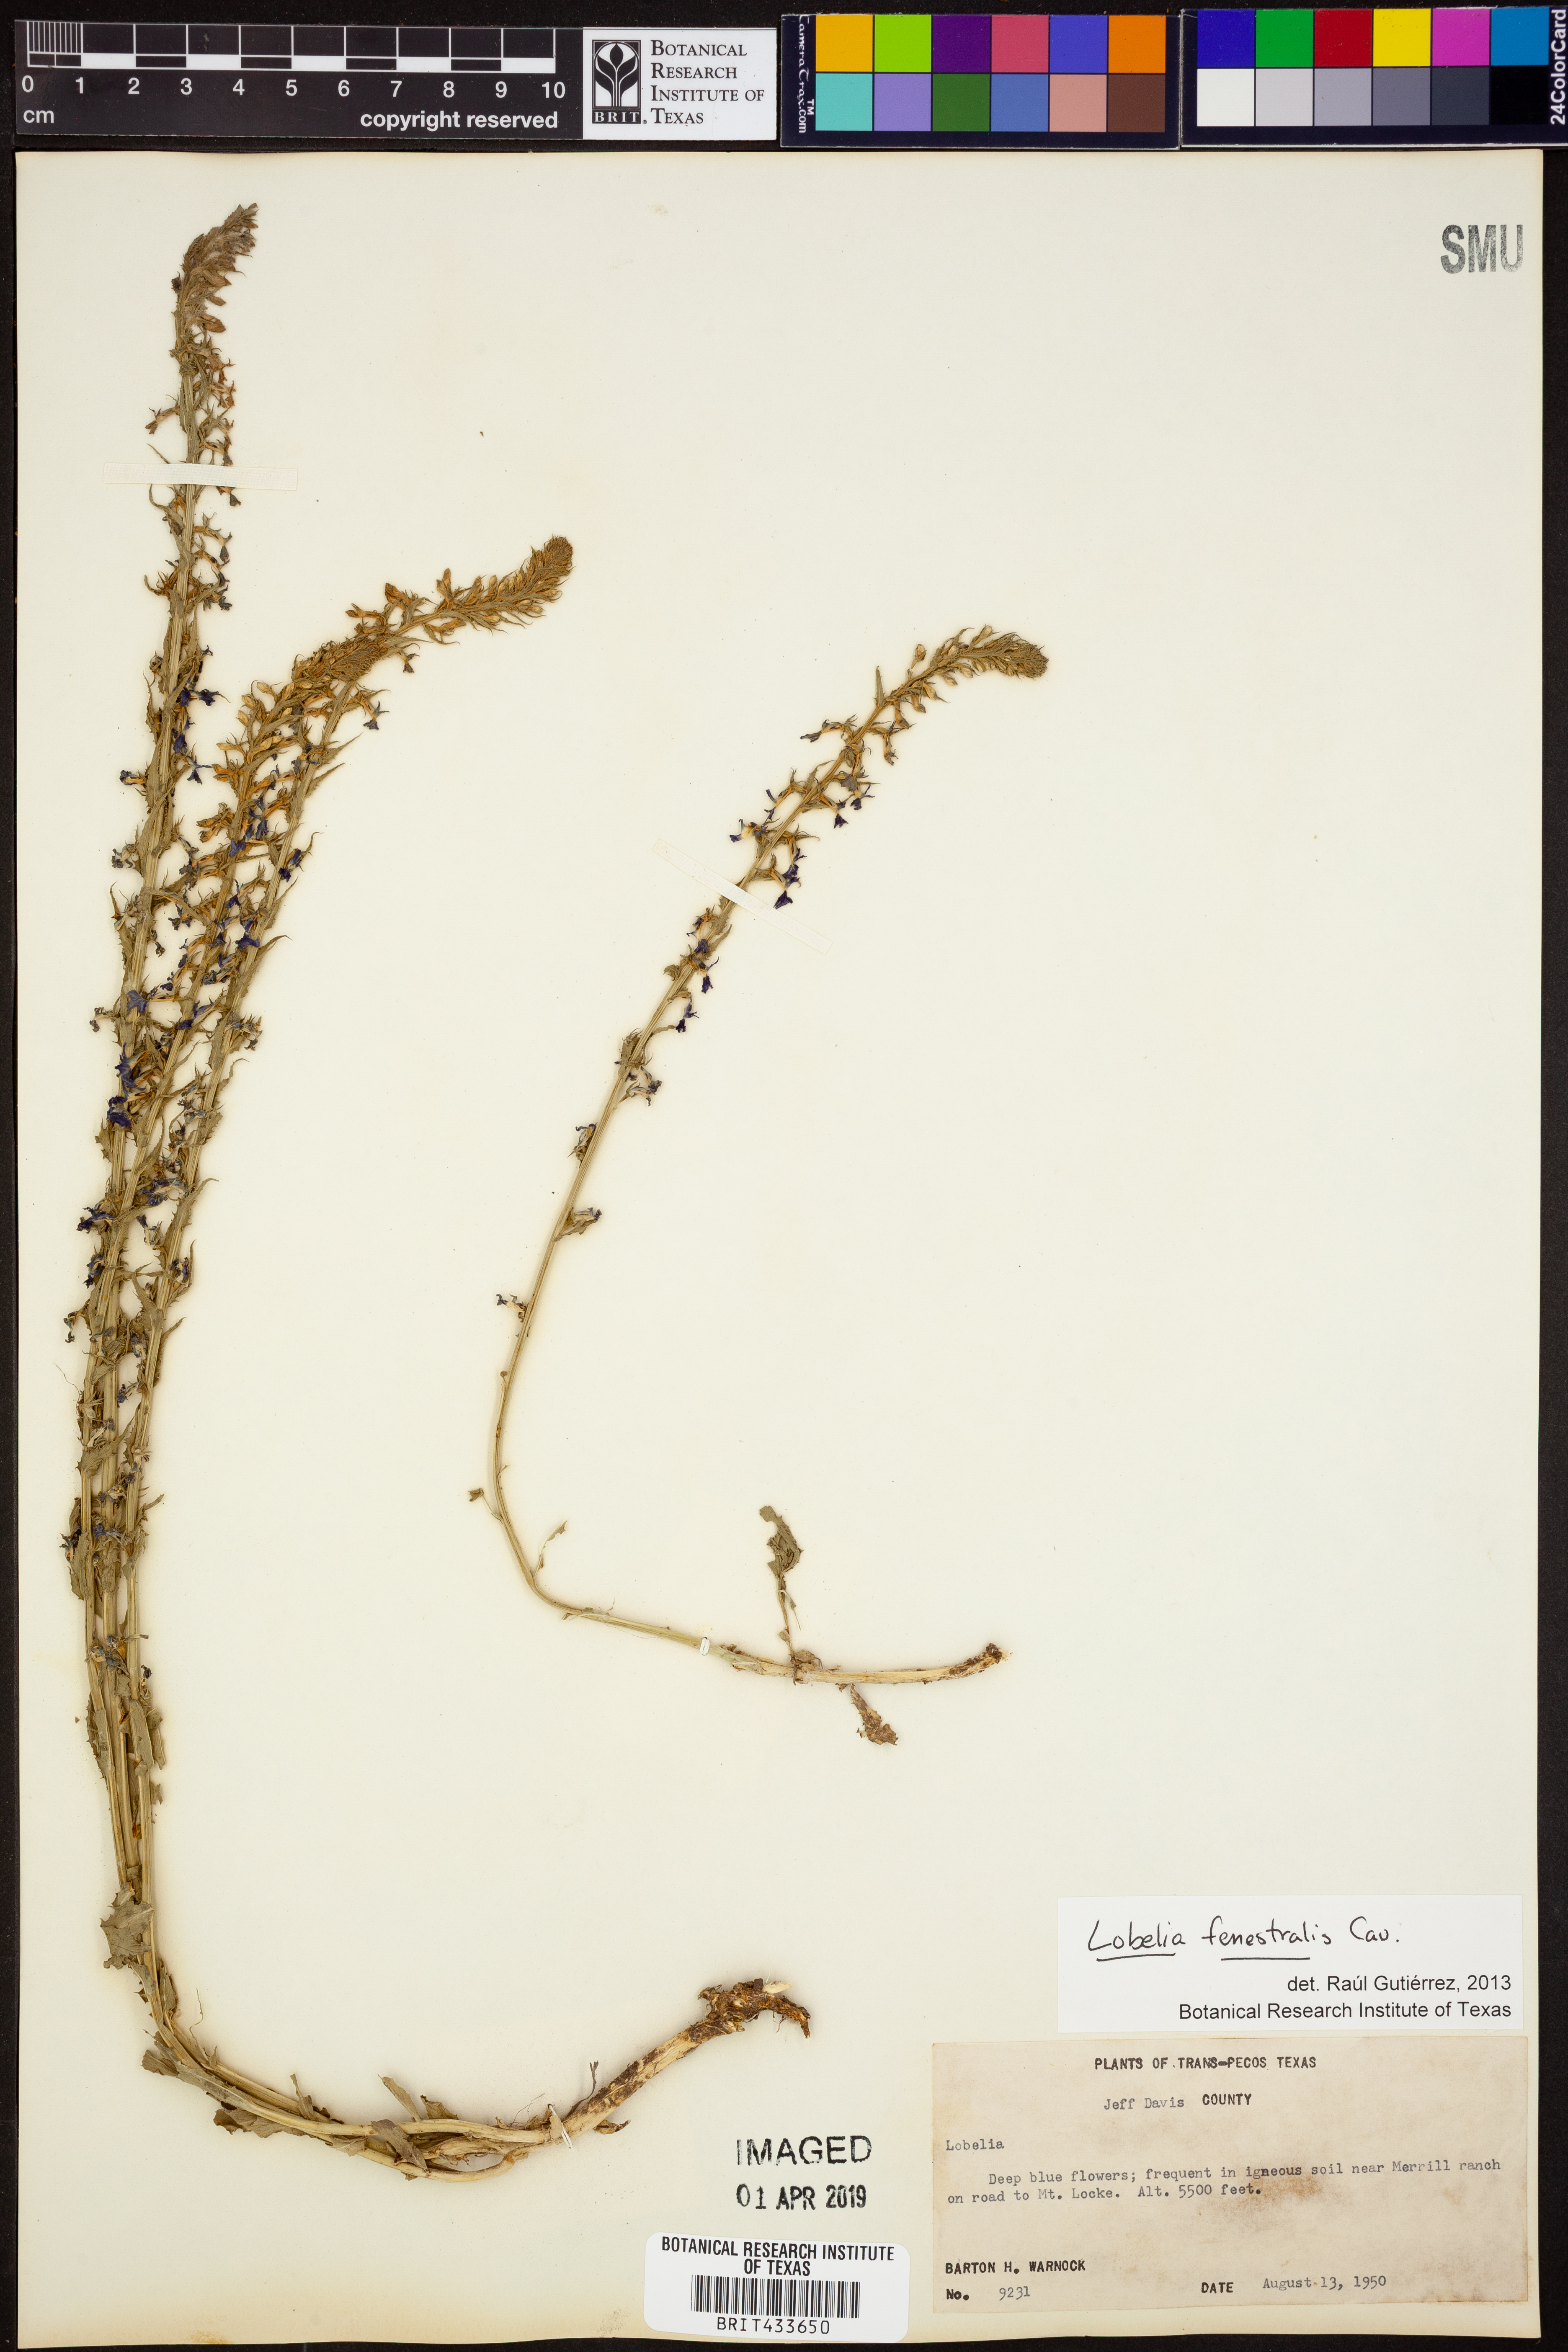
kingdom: Plantae
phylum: Tracheophyta
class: Magnoliopsida
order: Asterales
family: Campanulaceae
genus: Lobelia
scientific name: Lobelia fenestralis
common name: Leafy lobelia
